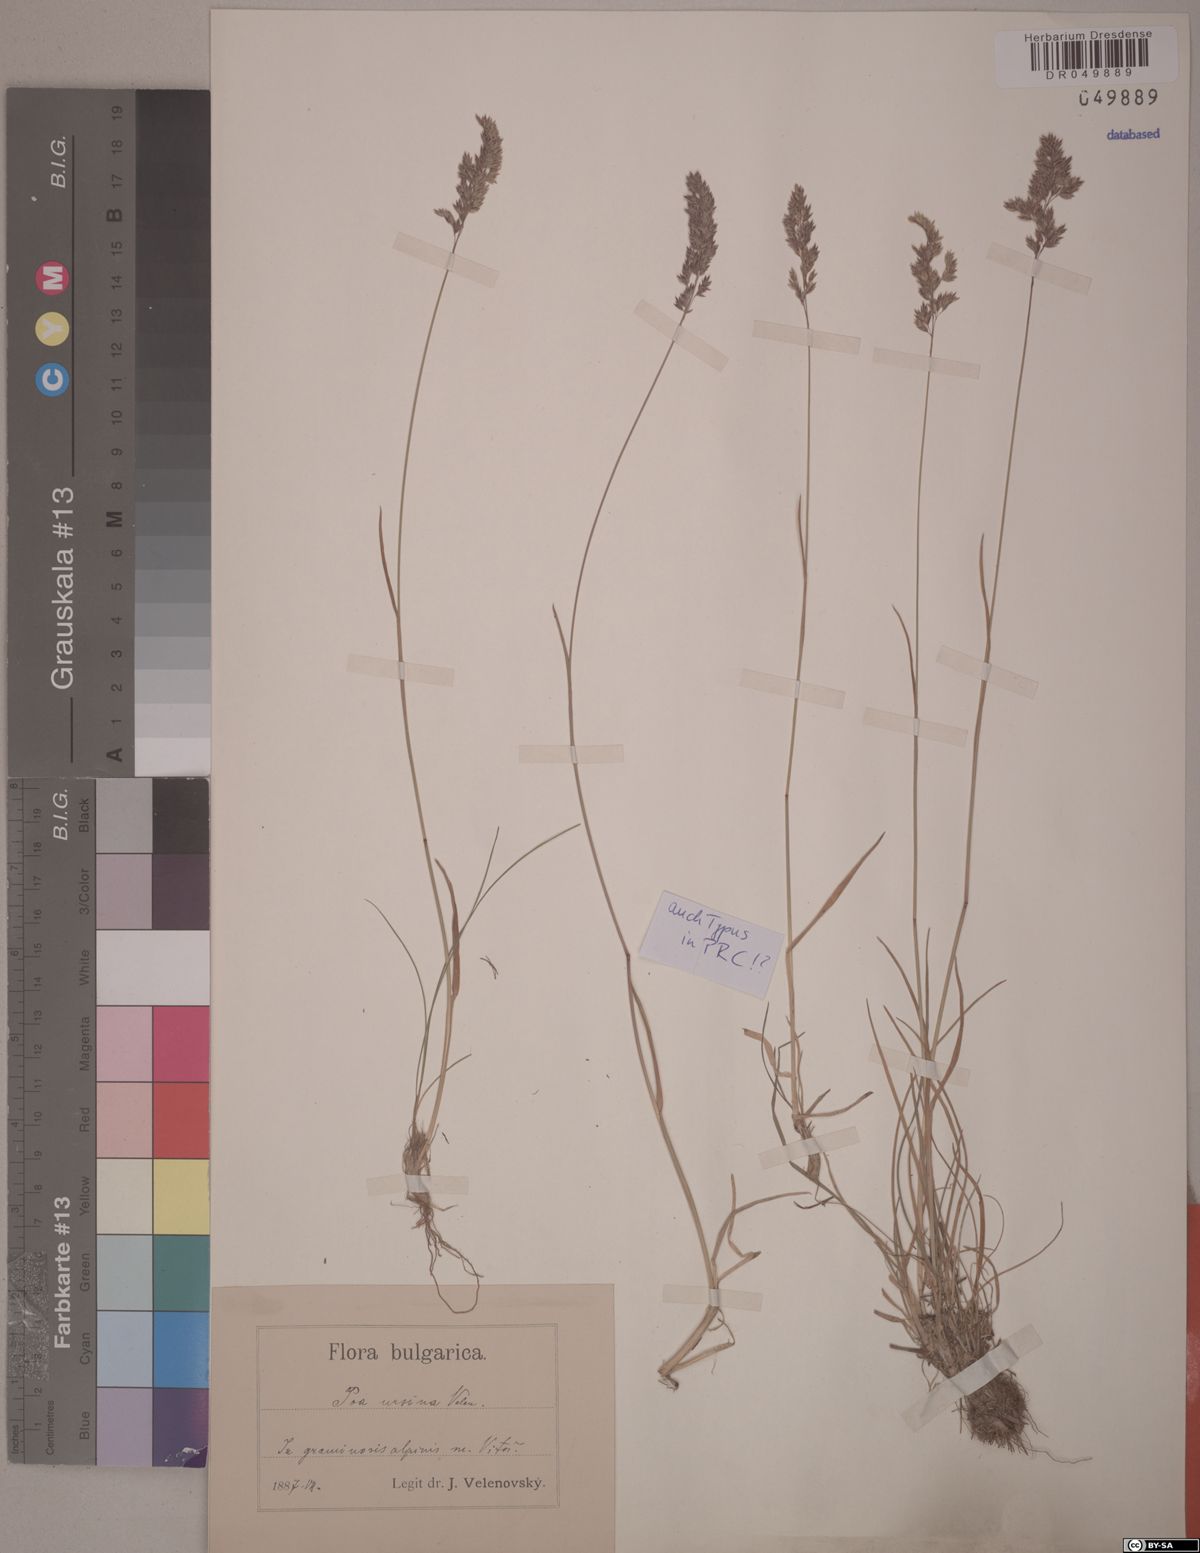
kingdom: Plantae
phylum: Tracheophyta
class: Liliopsida
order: Poales
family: Poaceae
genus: Poa
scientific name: Poa ursina
